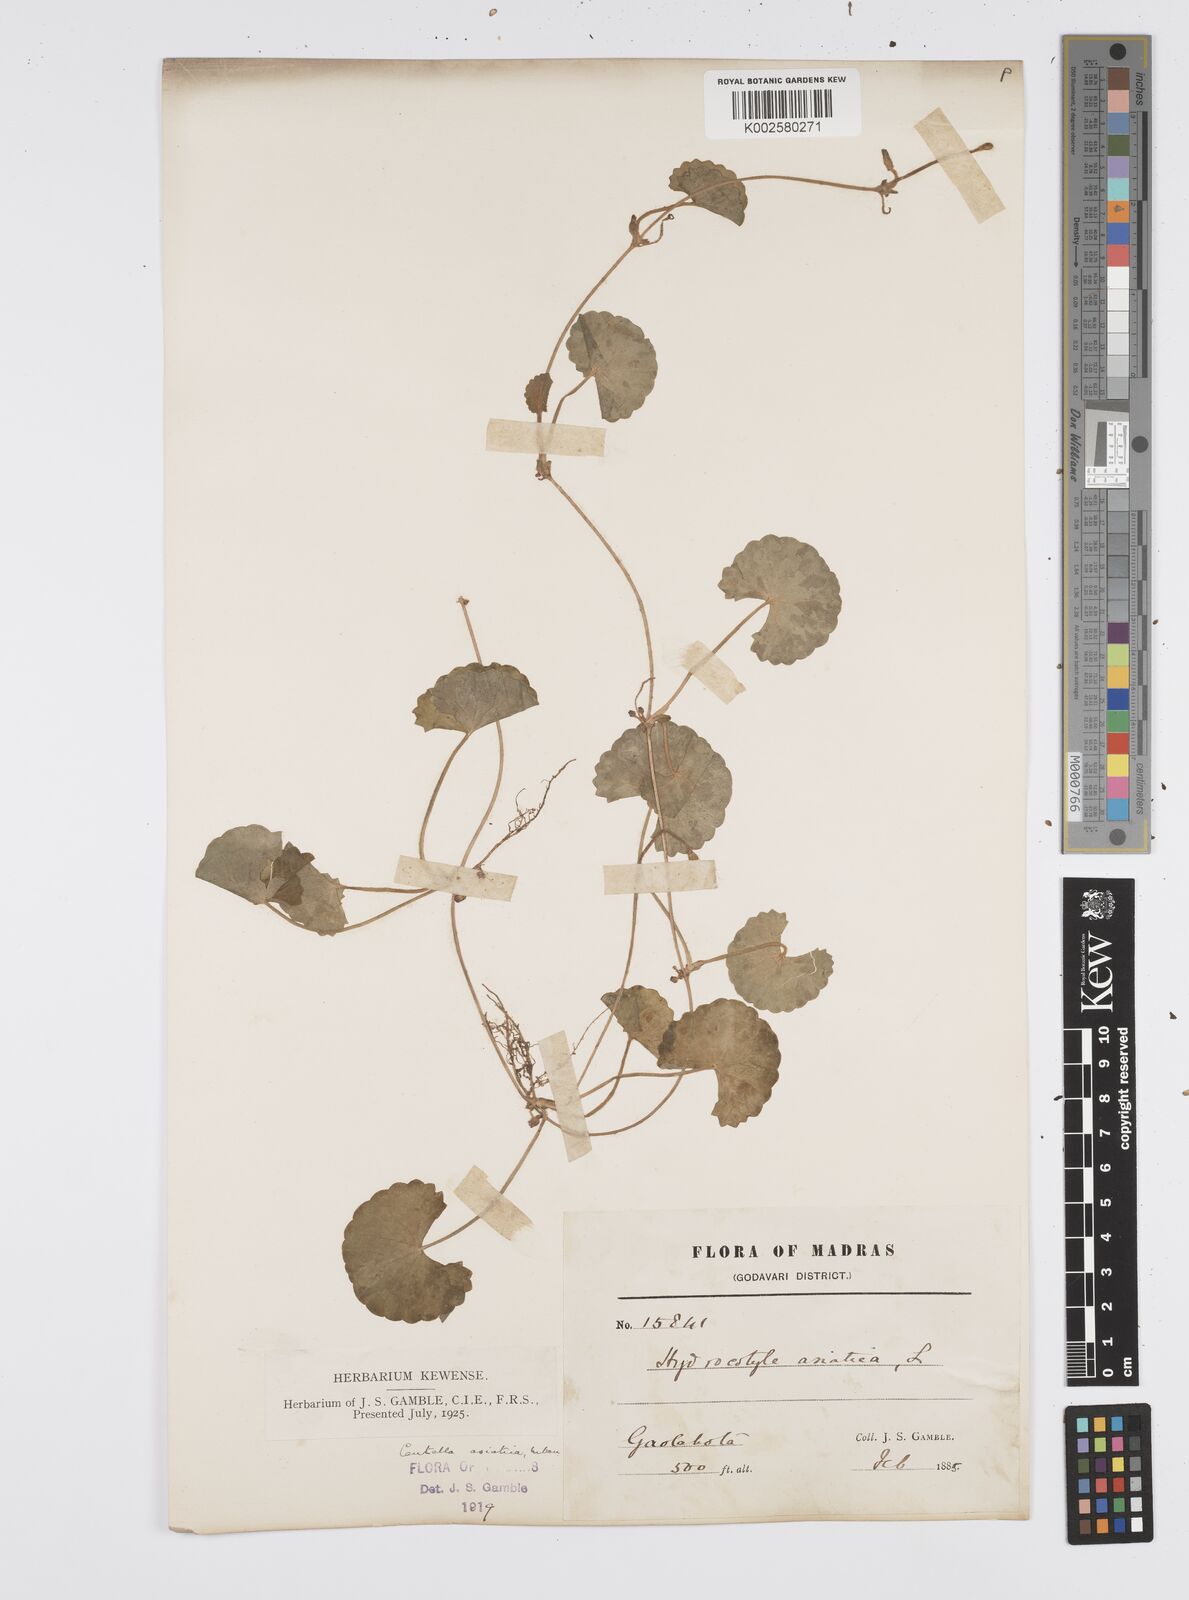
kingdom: Plantae
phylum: Tracheophyta
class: Magnoliopsida
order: Apiales
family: Apiaceae
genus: Centella
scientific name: Centella asiatica
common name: Spadeleaf
